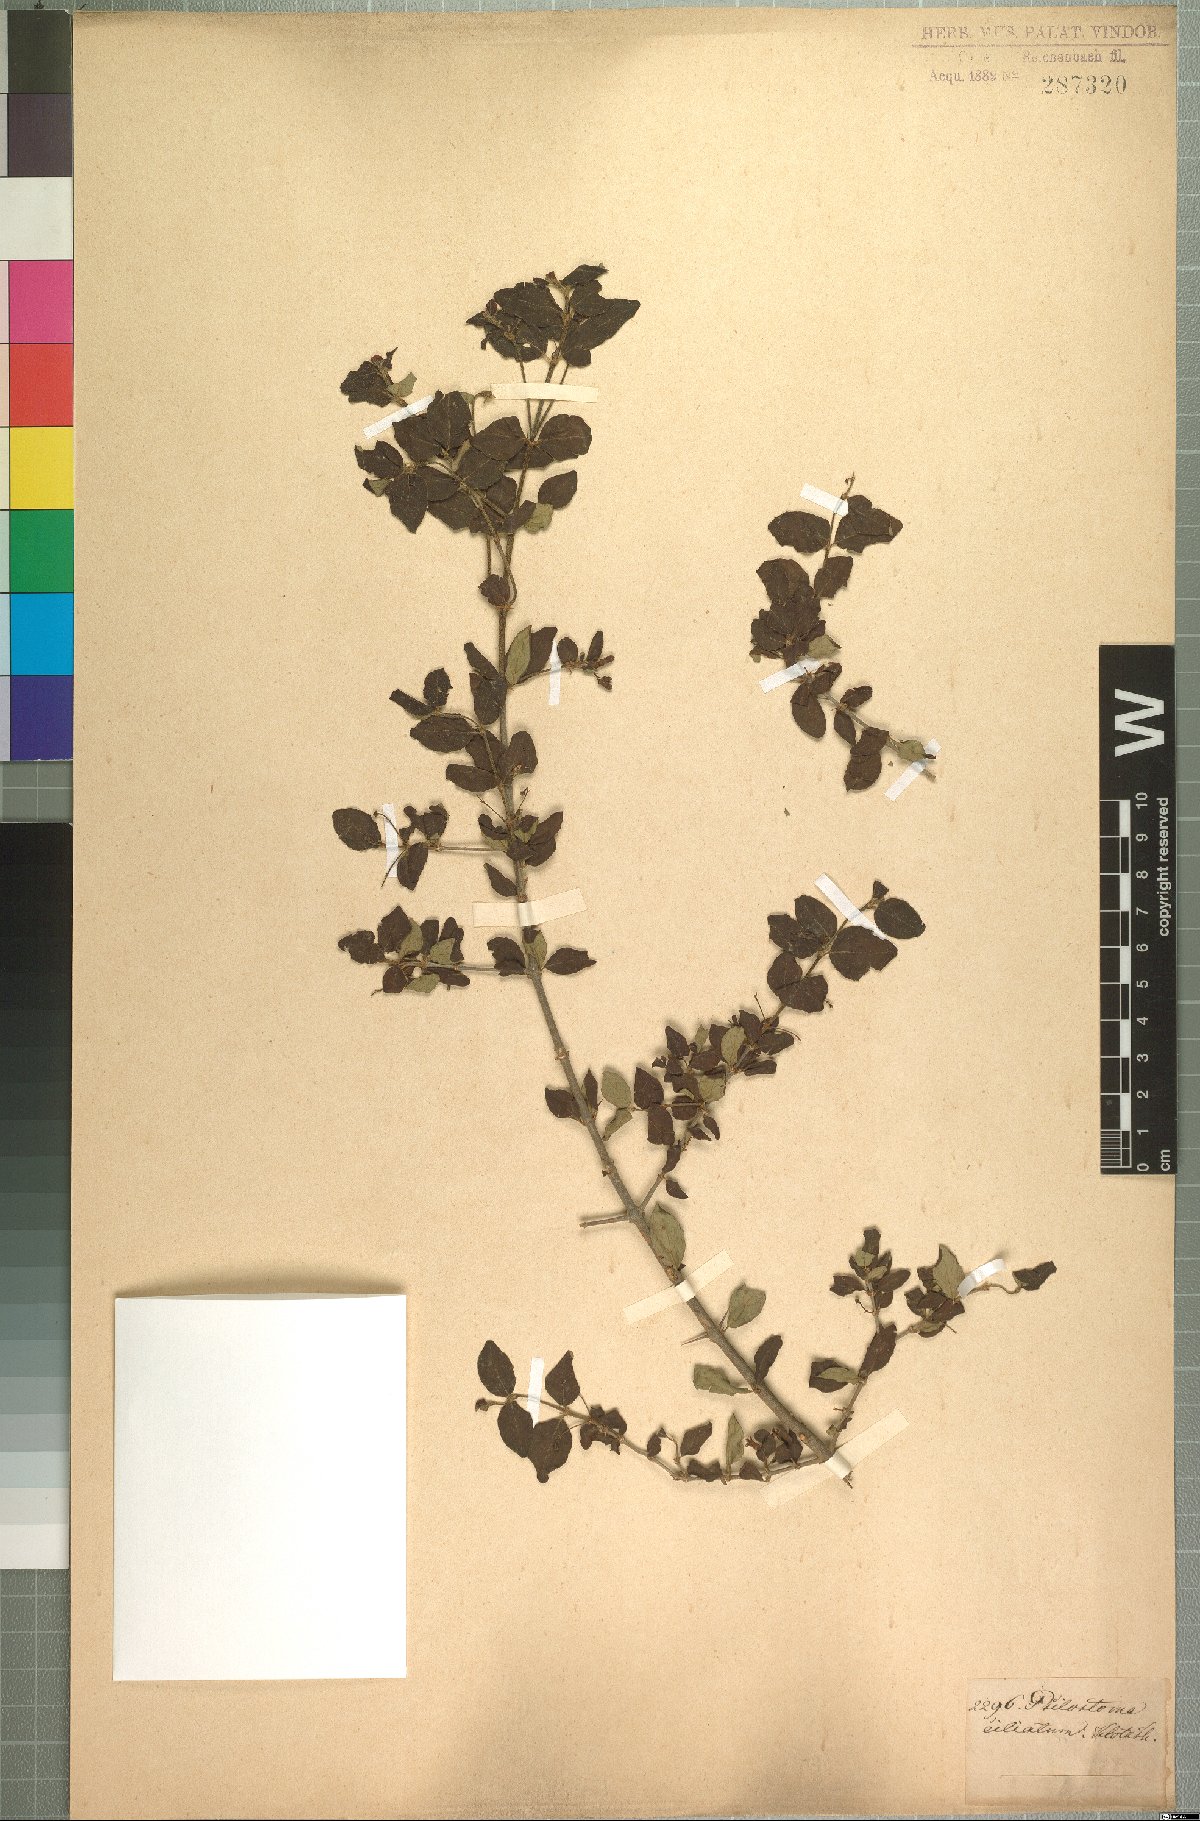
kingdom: Plantae
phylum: Tracheophyta
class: Magnoliopsida
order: Gentianales
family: Rubiaceae
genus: Canthium
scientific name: Canthium ciliatum
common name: Hairy turkey-berry
